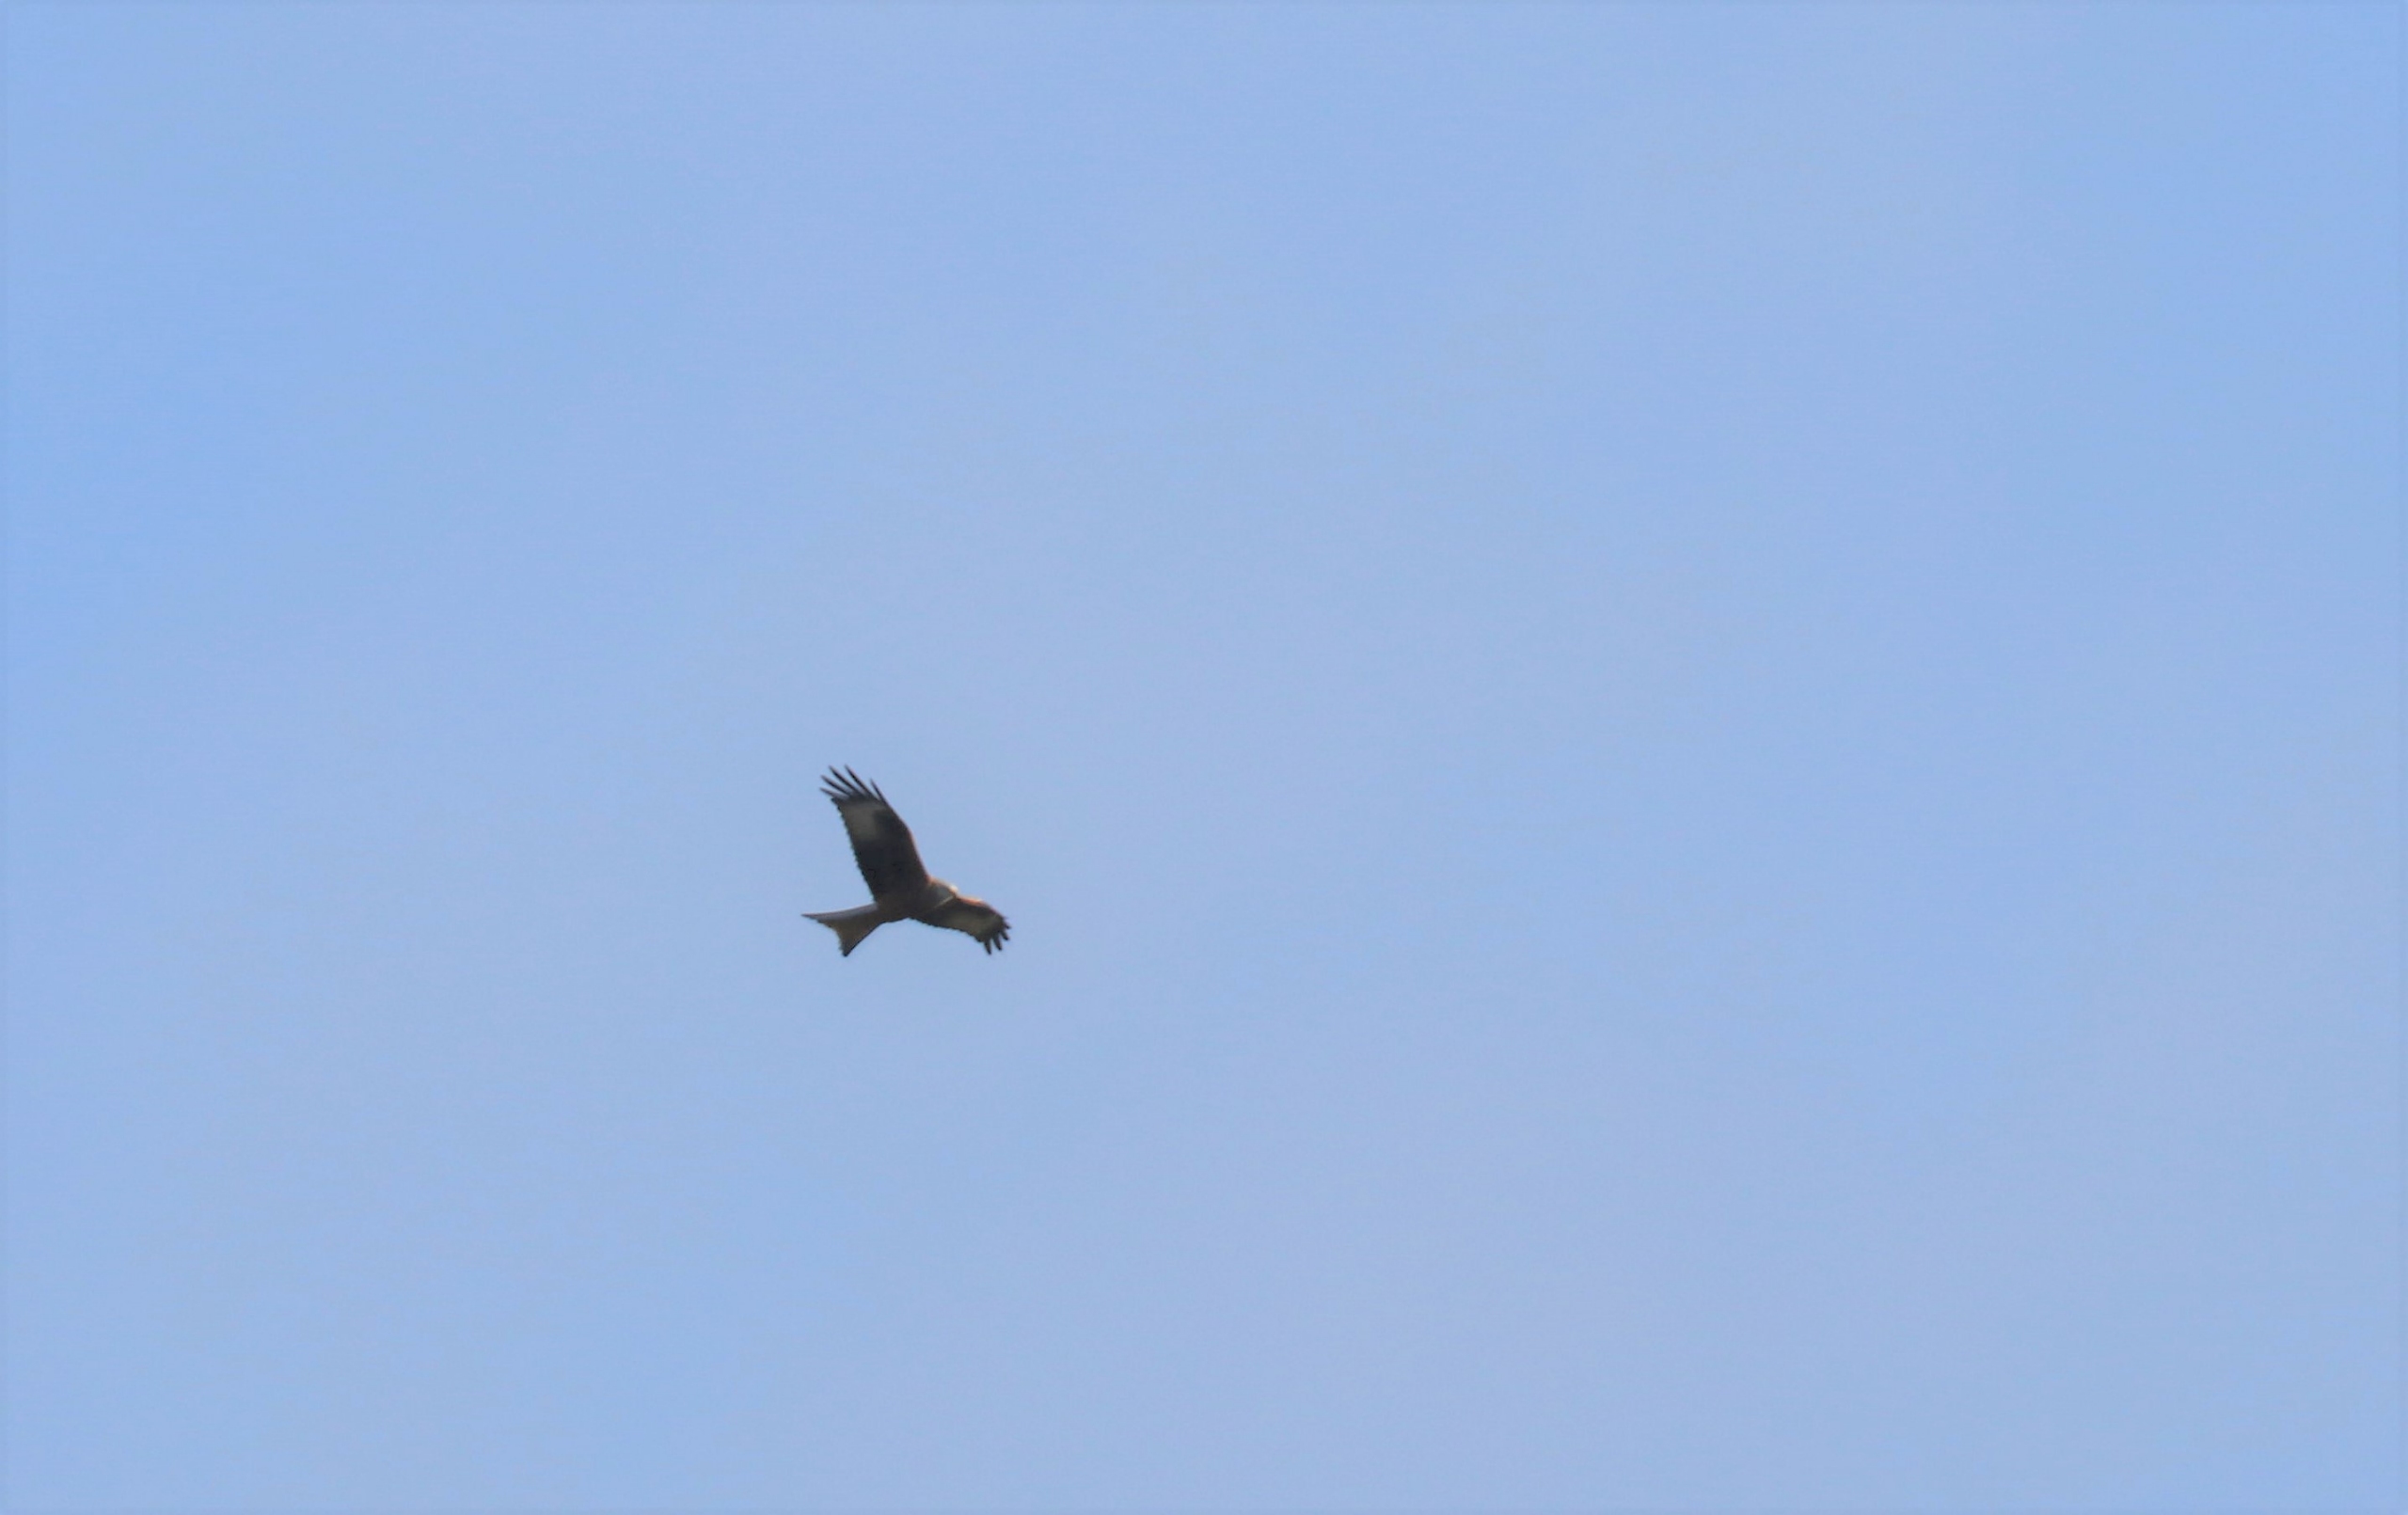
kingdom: Animalia
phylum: Chordata
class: Aves
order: Accipitriformes
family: Accipitridae
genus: Milvus
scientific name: Milvus milvus
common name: Rød glente
